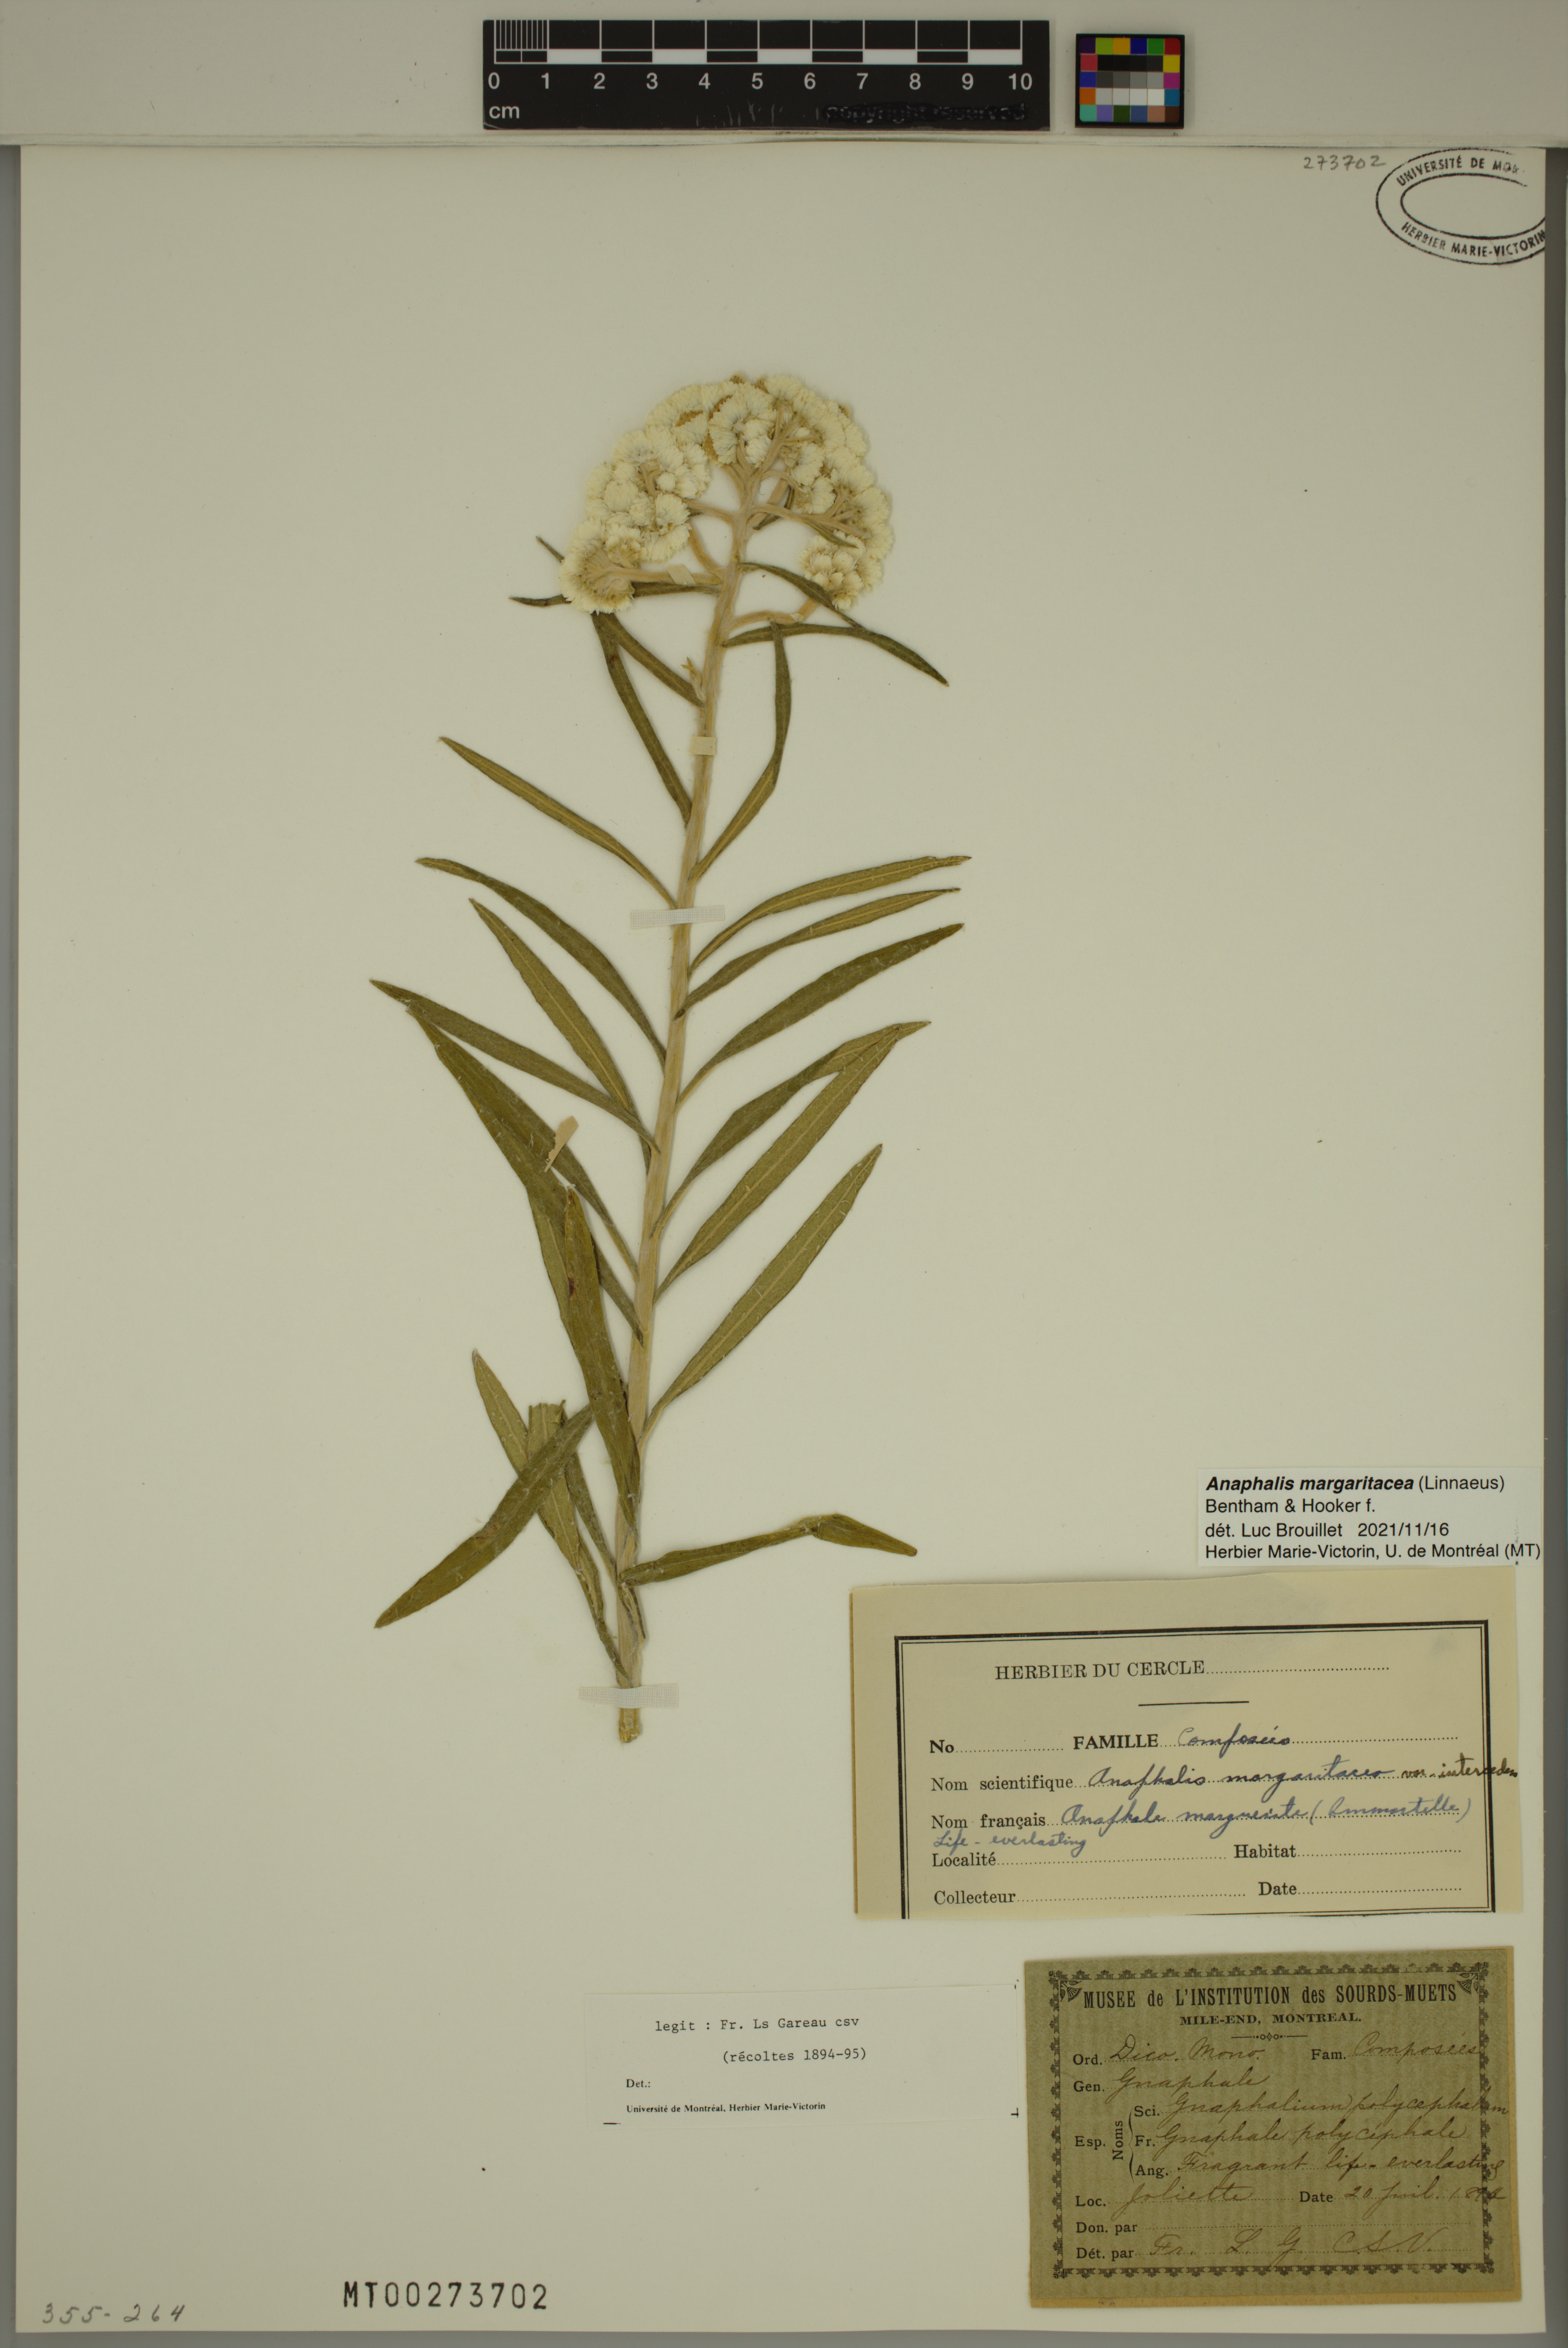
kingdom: Plantae
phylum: Tracheophyta
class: Magnoliopsida
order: Asterales
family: Asteraceae
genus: Anaphalis
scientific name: Anaphalis margaritacea
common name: Pearly everlasting
